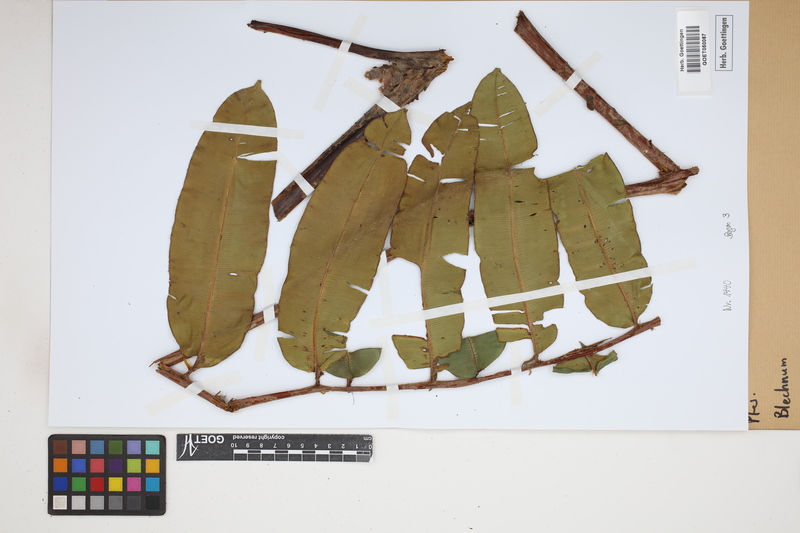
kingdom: Plantae
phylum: Tracheophyta
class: Polypodiopsida
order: Polypodiales
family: Blechnaceae
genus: Blechnum
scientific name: Blechnum
